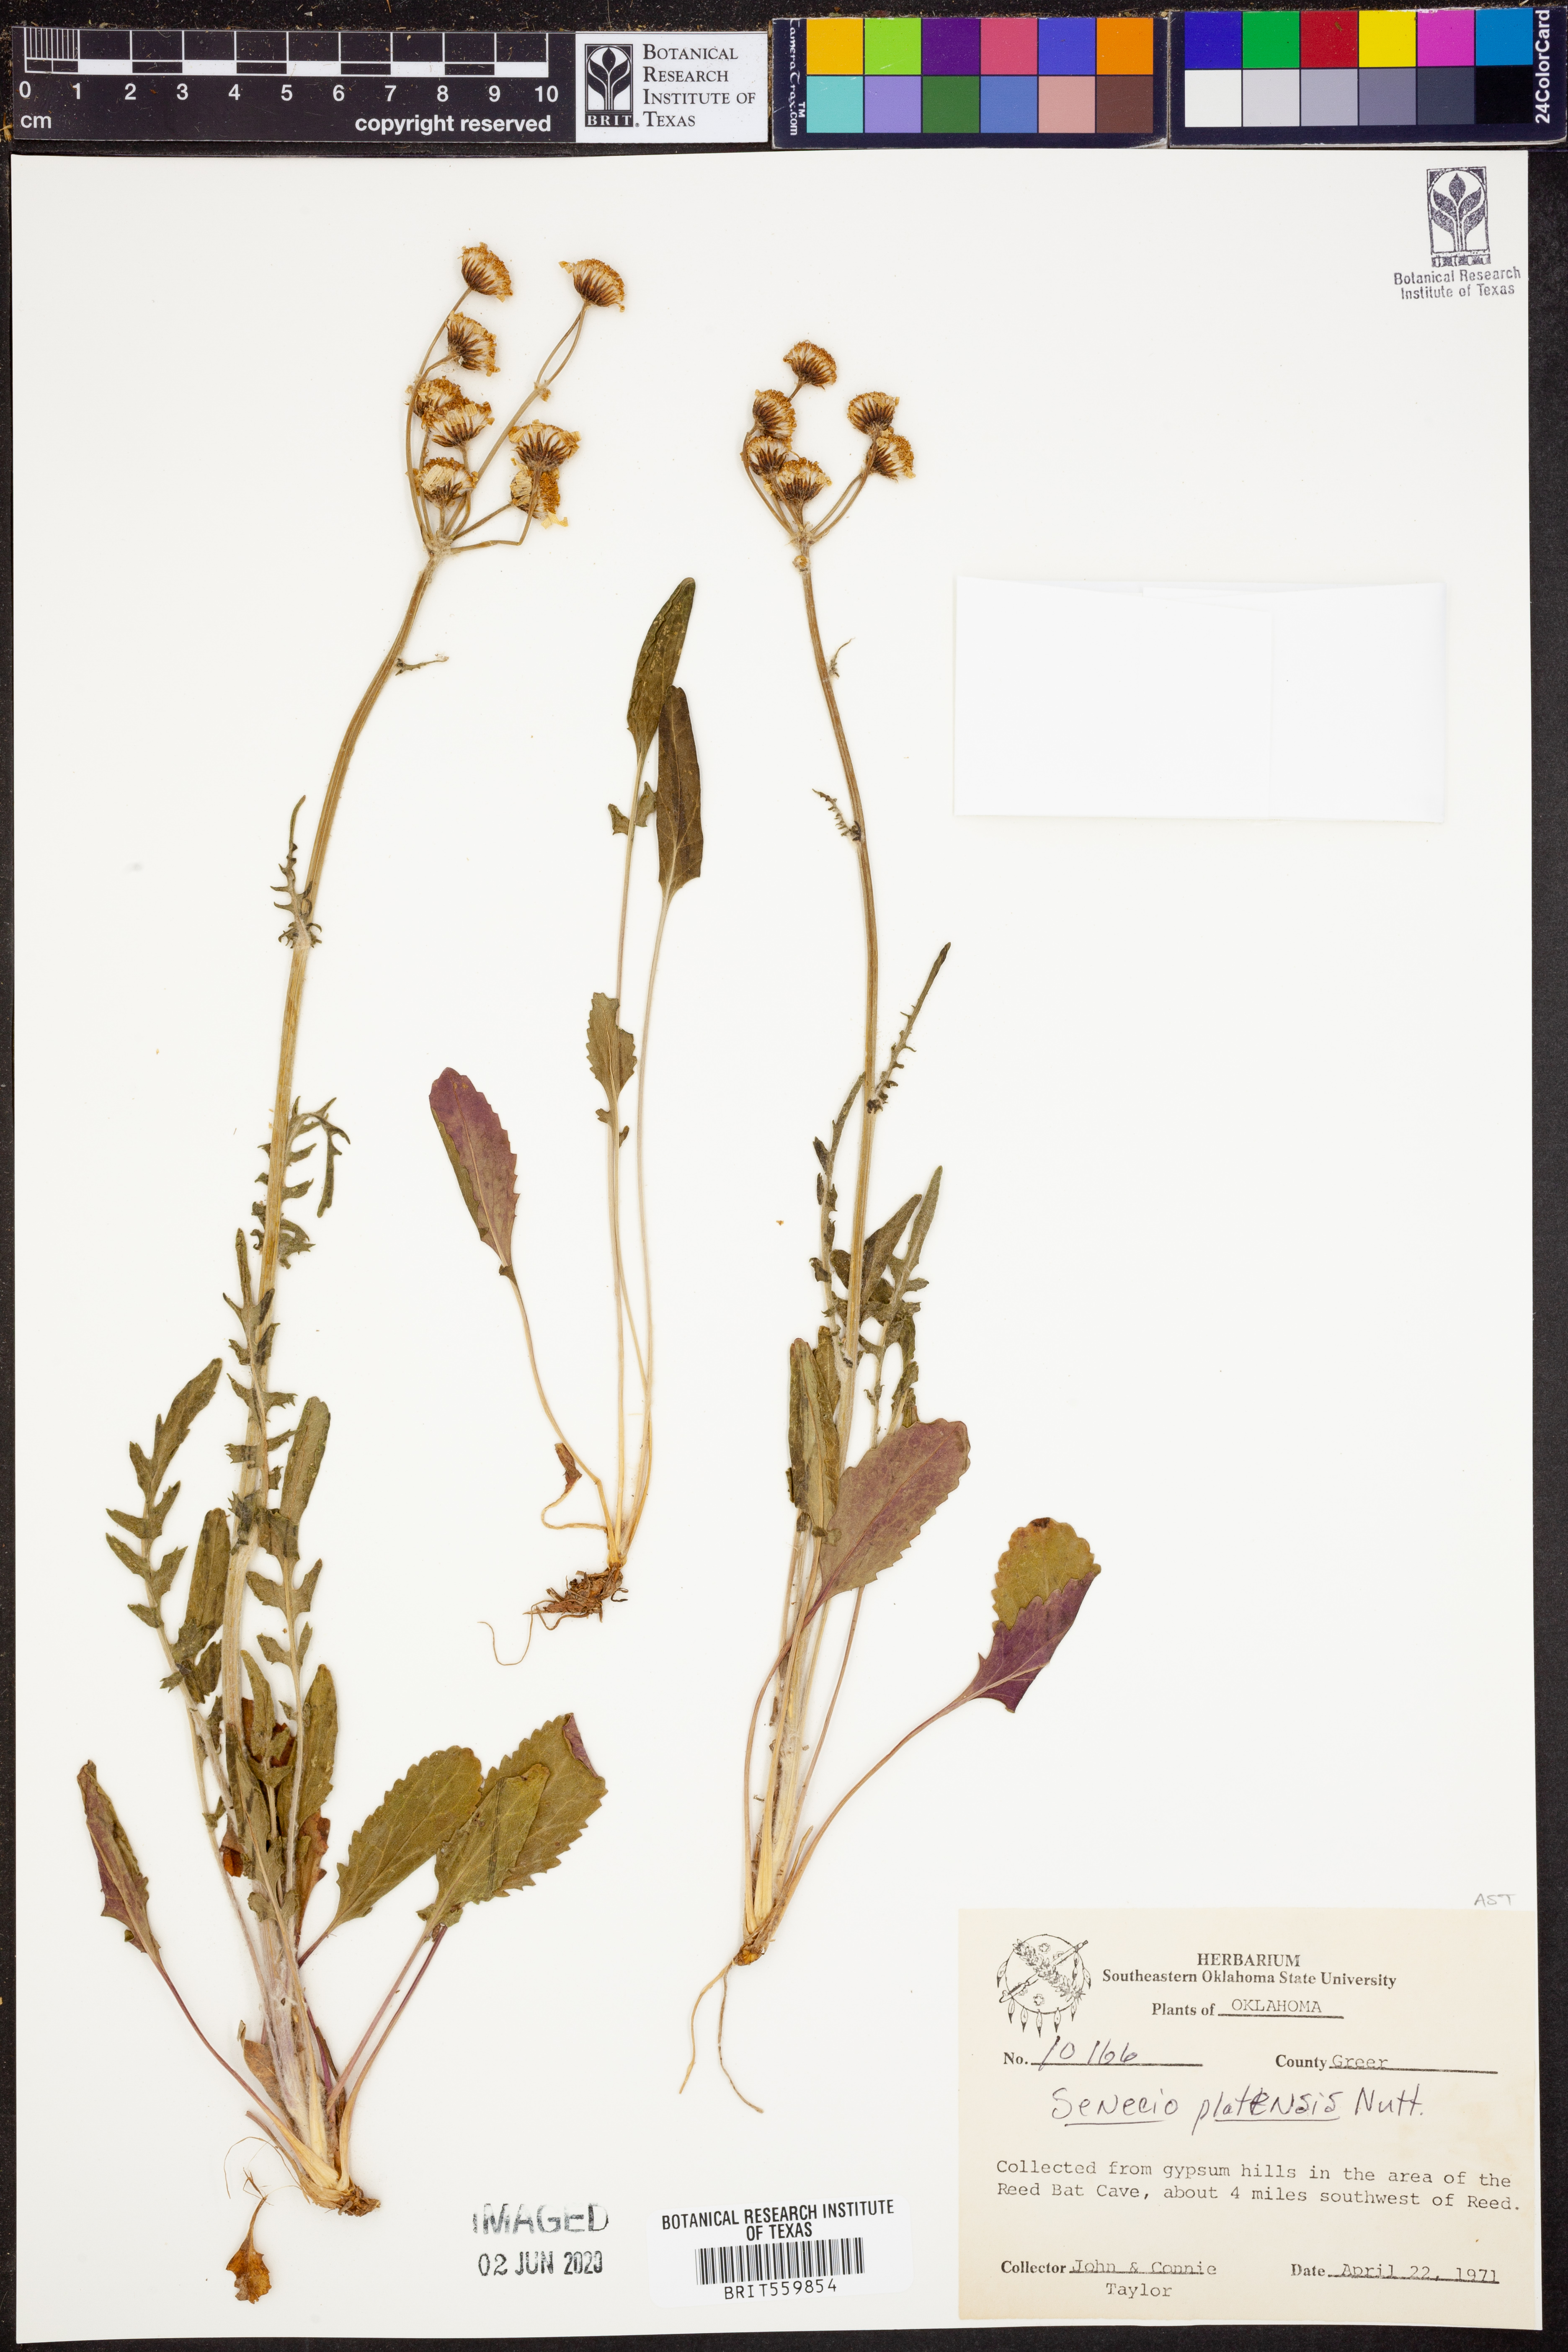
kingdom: Plantae
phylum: Tracheophyta
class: Magnoliopsida
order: Asterales
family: Asteraceae
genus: Packera
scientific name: Packera plattensis
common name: Prairie groundsel
